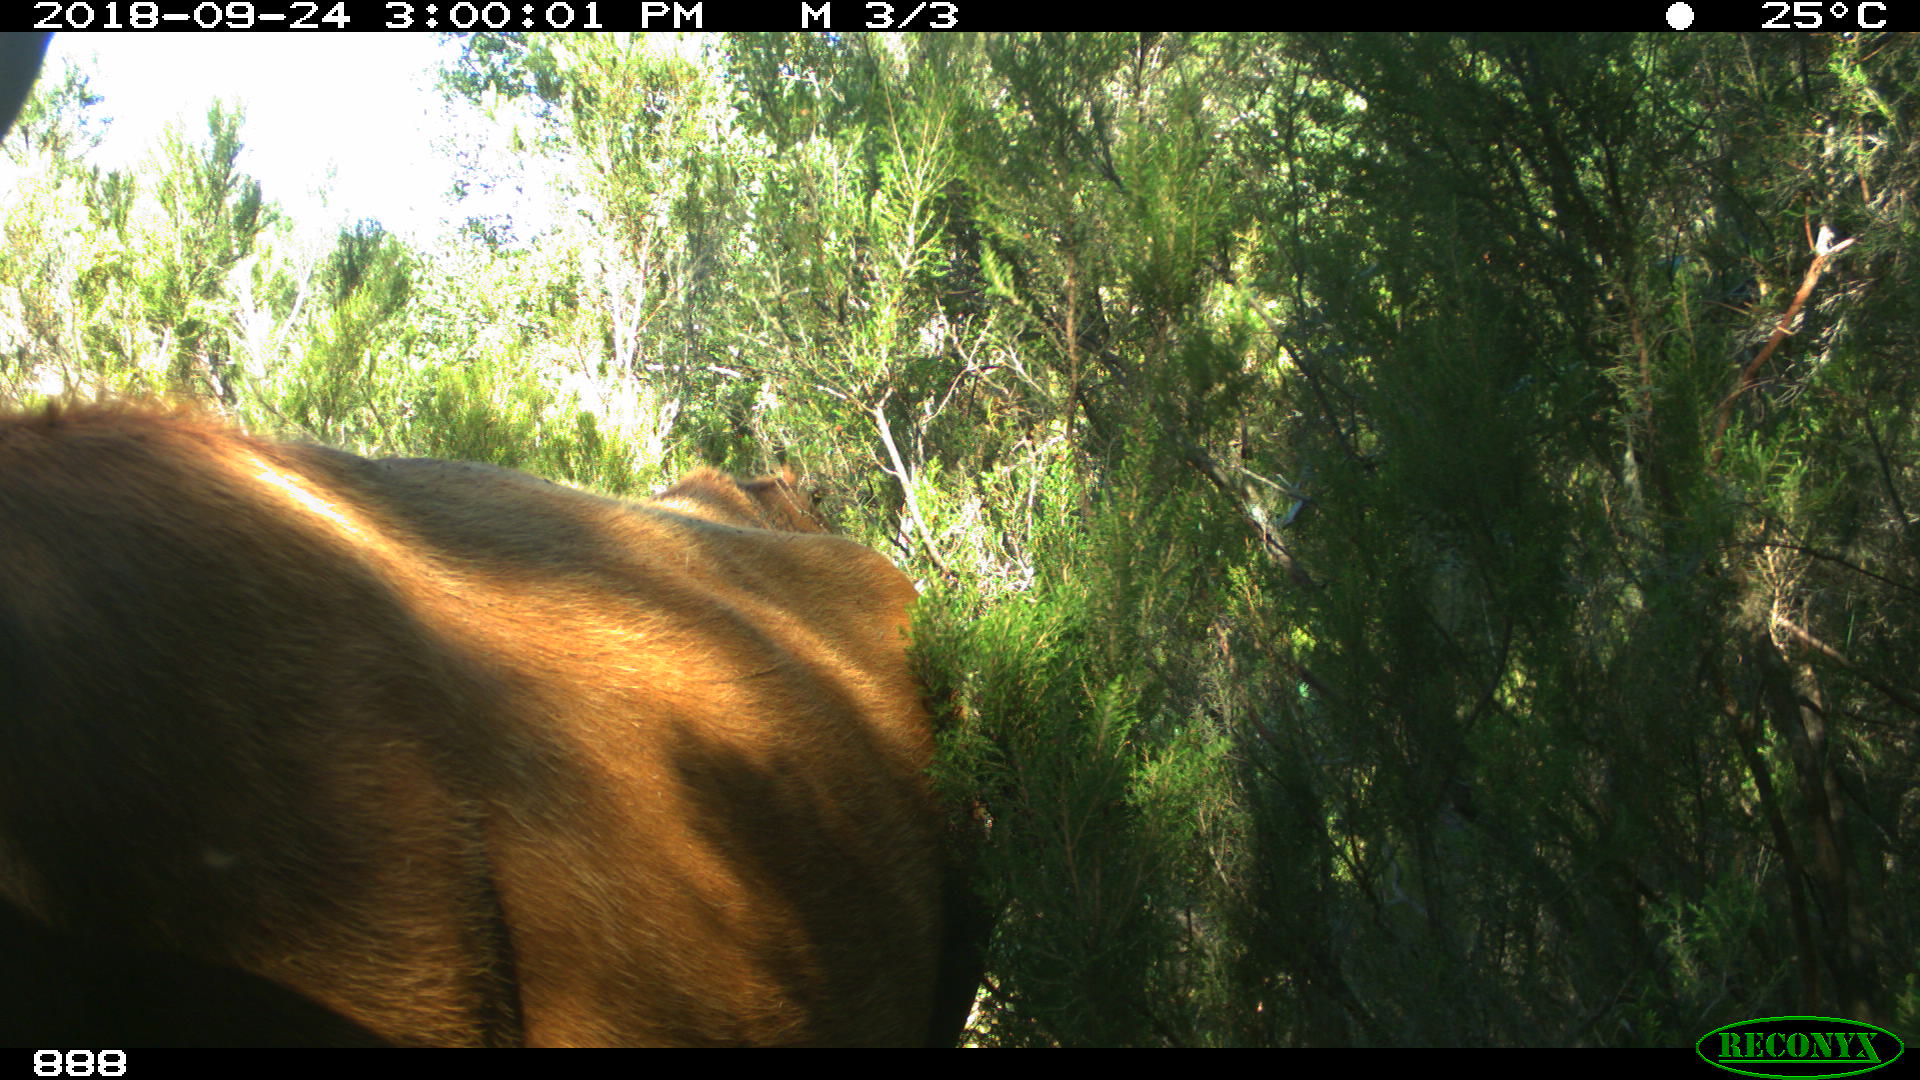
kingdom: Animalia
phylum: Chordata
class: Mammalia
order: Artiodactyla
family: Bovidae
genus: Bos
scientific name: Bos taurus
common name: Domesticated cattle
